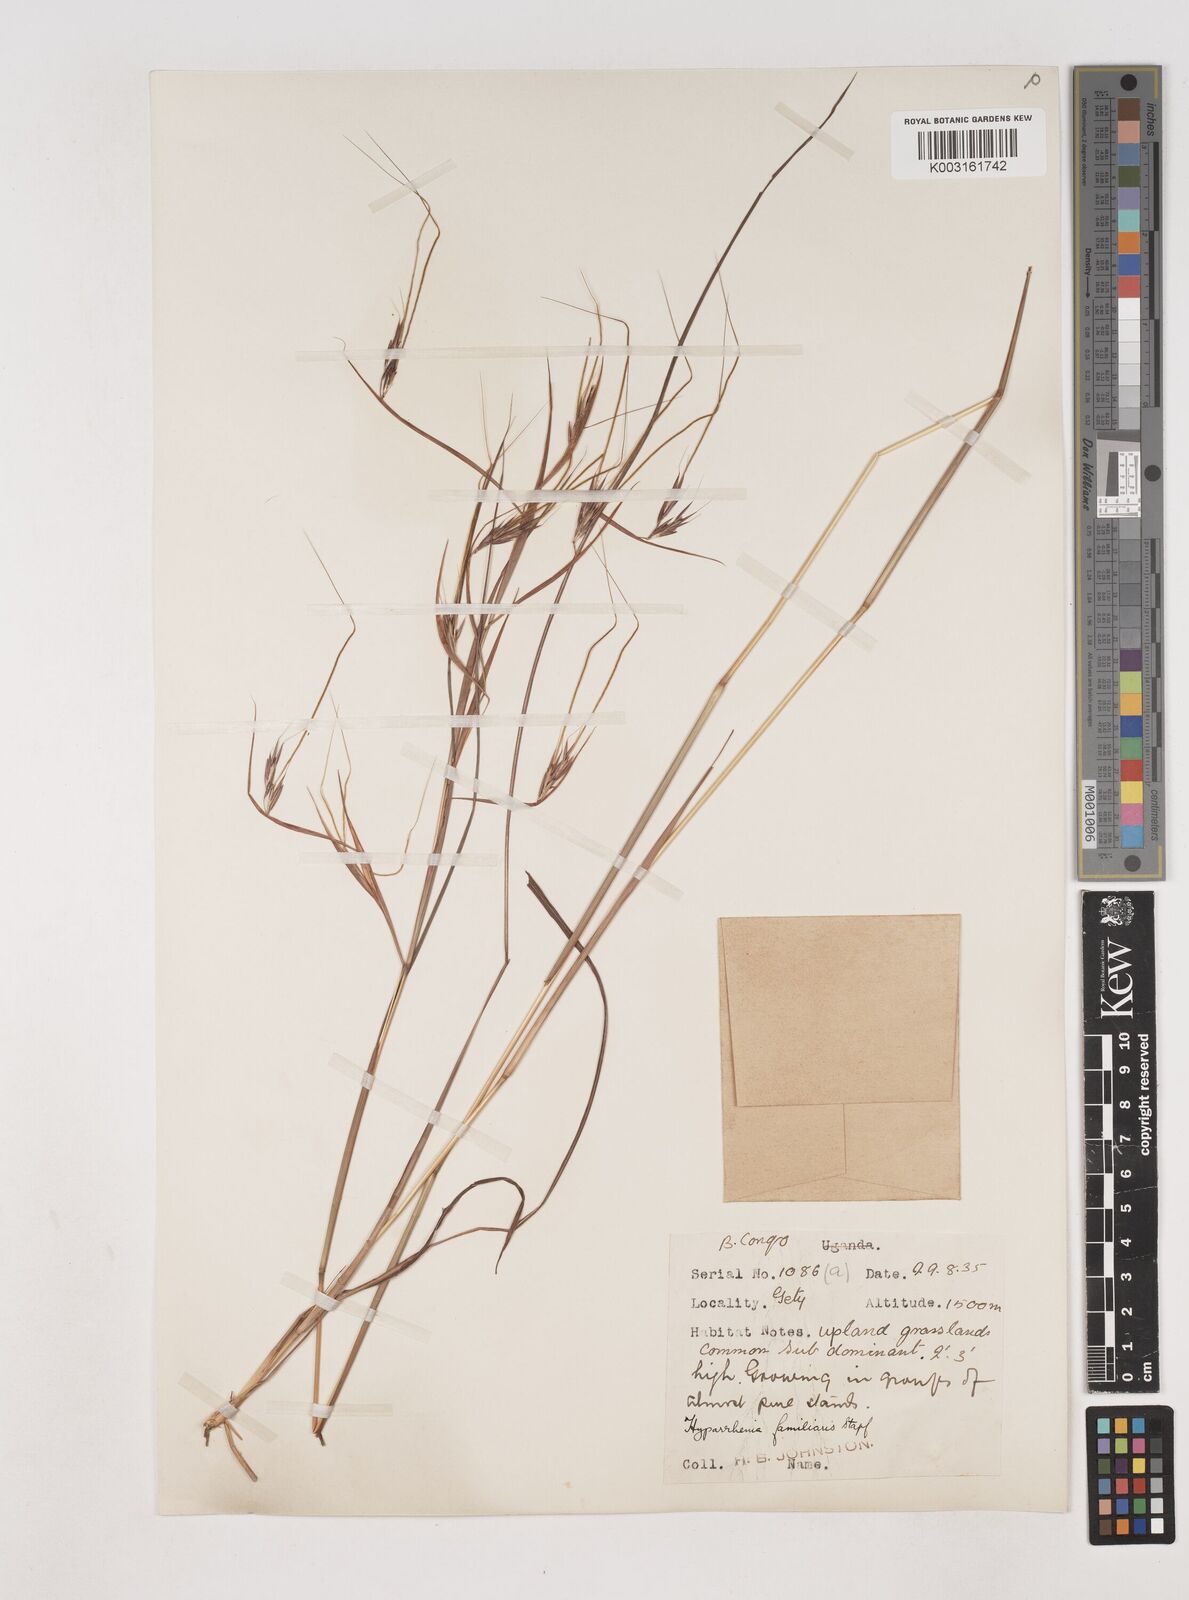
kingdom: Plantae
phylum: Tracheophyta
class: Liliopsida
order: Poales
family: Poaceae
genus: Hyparrhenia
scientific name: Hyparrhenia familiaris
